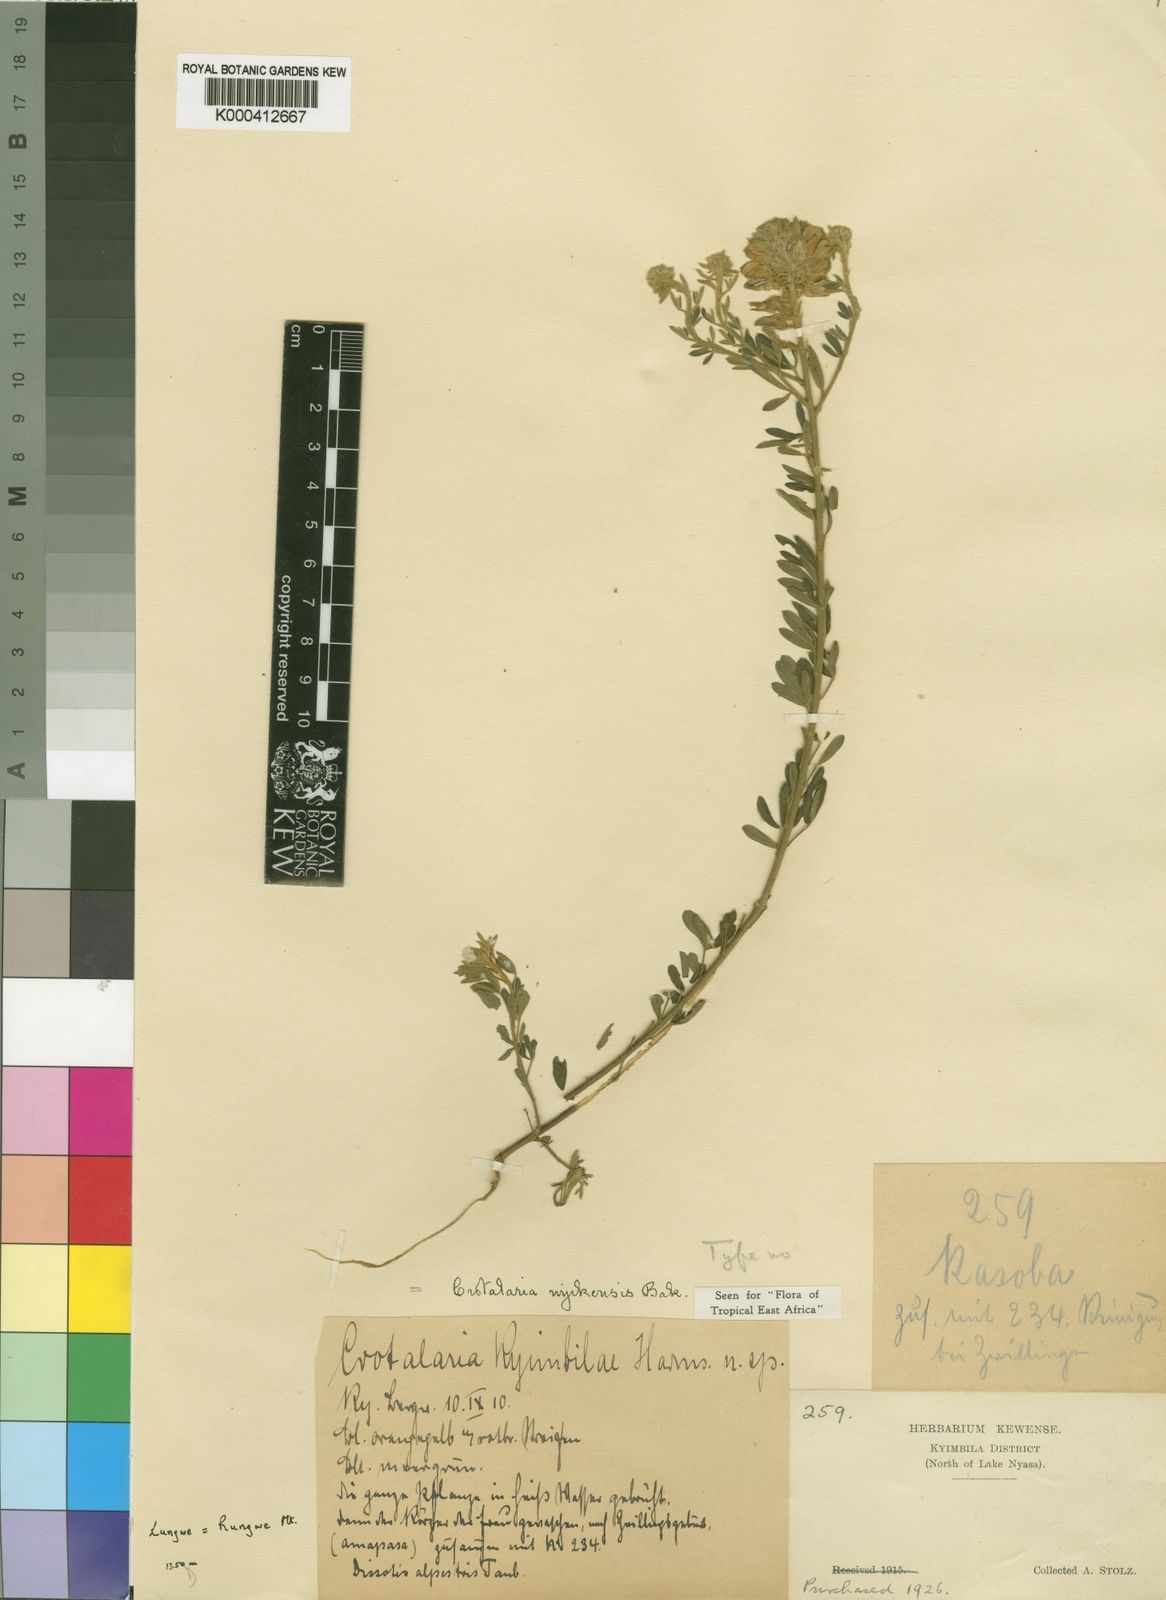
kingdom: Plantae
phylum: Tracheophyta
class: Magnoliopsida
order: Fabales
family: Fabaceae
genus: Crotalaria
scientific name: Crotalaria nyikensis
